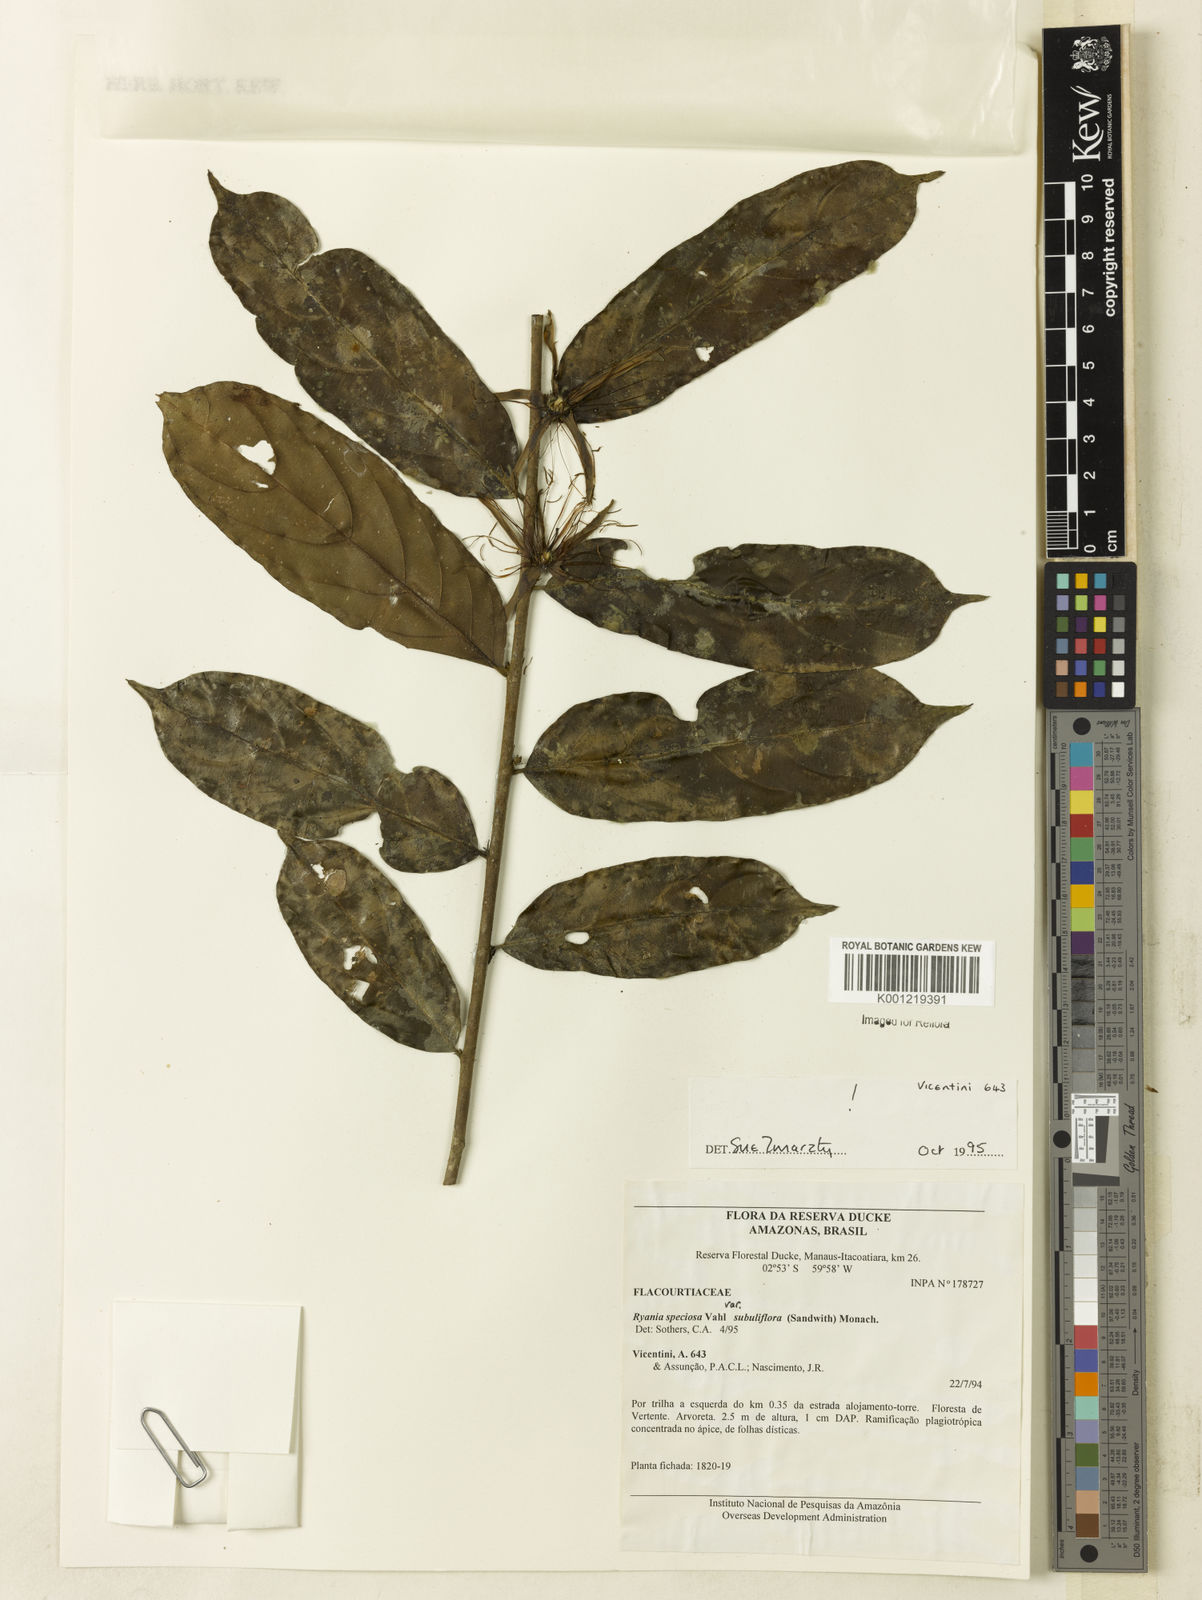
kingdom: Plantae
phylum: Tracheophyta
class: Magnoliopsida
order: Malpighiales
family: Salicaceae
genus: Ryania
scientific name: Ryania speciosa
